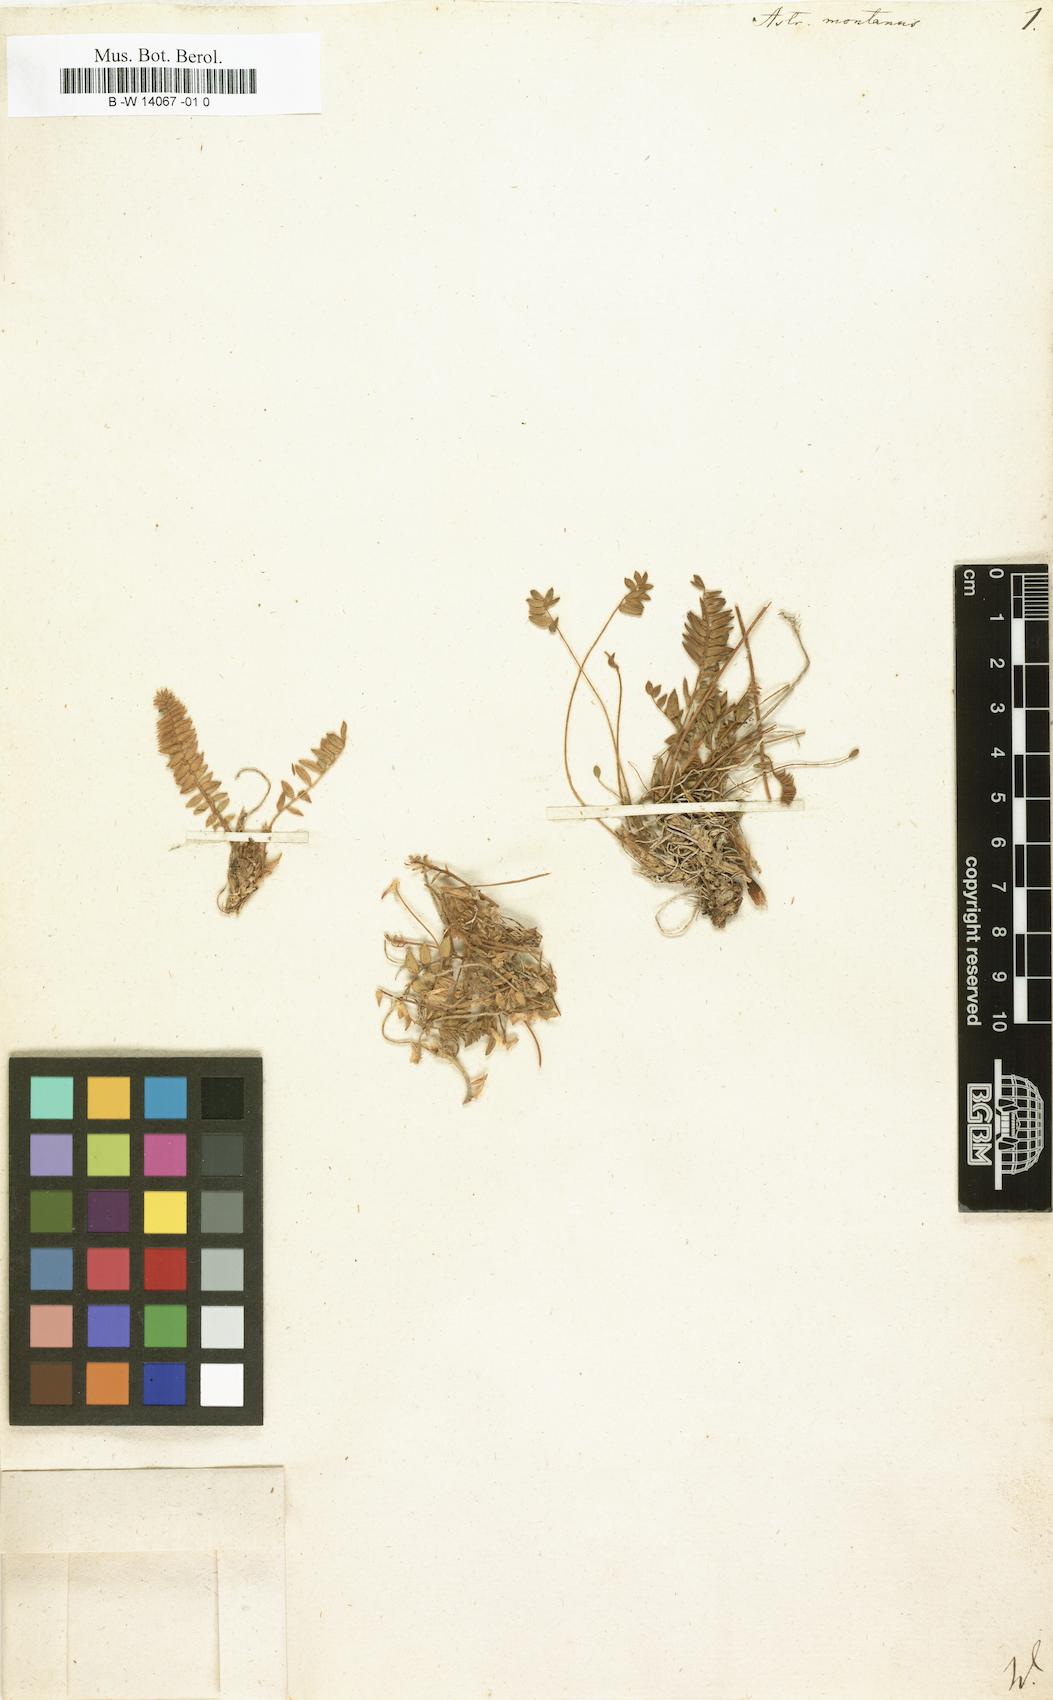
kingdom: Plantae
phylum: Tracheophyta
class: Magnoliopsida
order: Fabales
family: Fabaceae
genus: Astragalus
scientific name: Astragalus montanus
